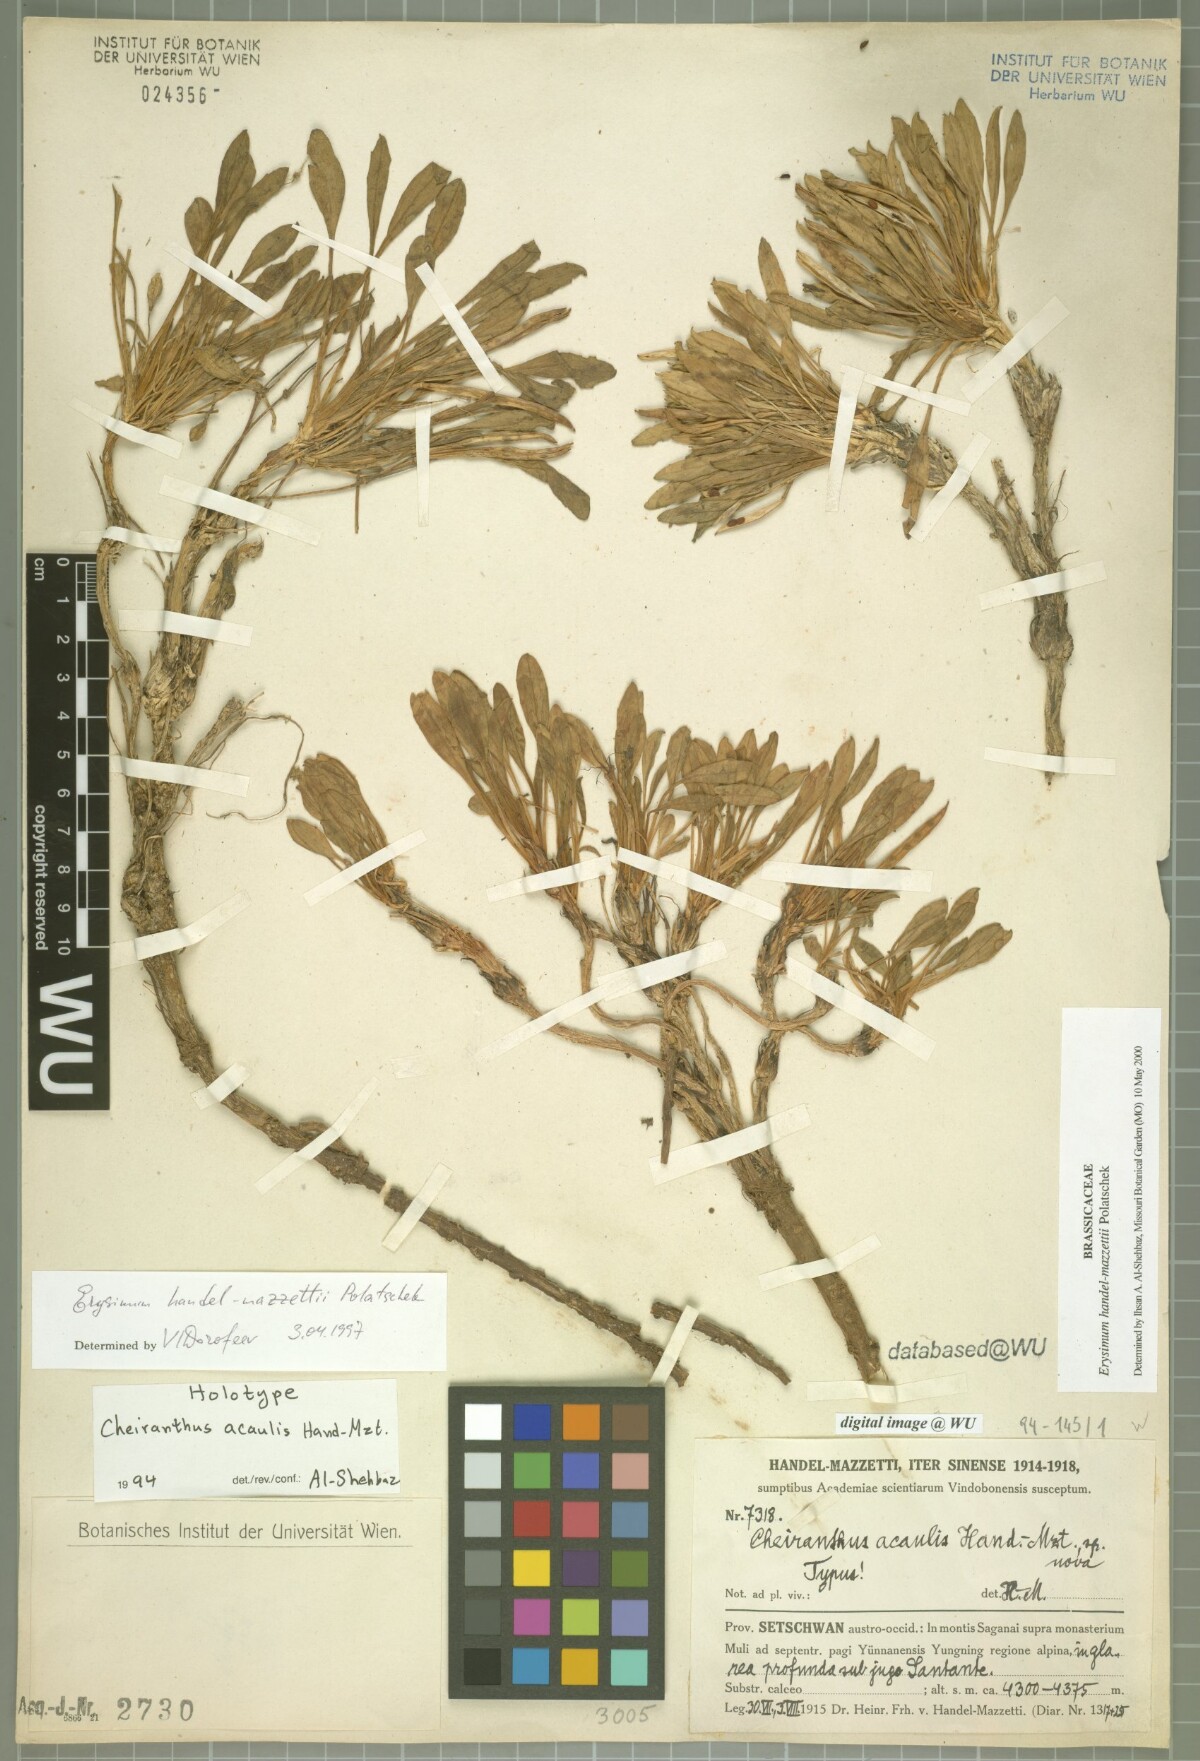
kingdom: Plantae
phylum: Tracheophyta
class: Magnoliopsida
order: Brassicales
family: Brassicaceae
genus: Erysimum
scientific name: Erysimum handel-mazzettii
